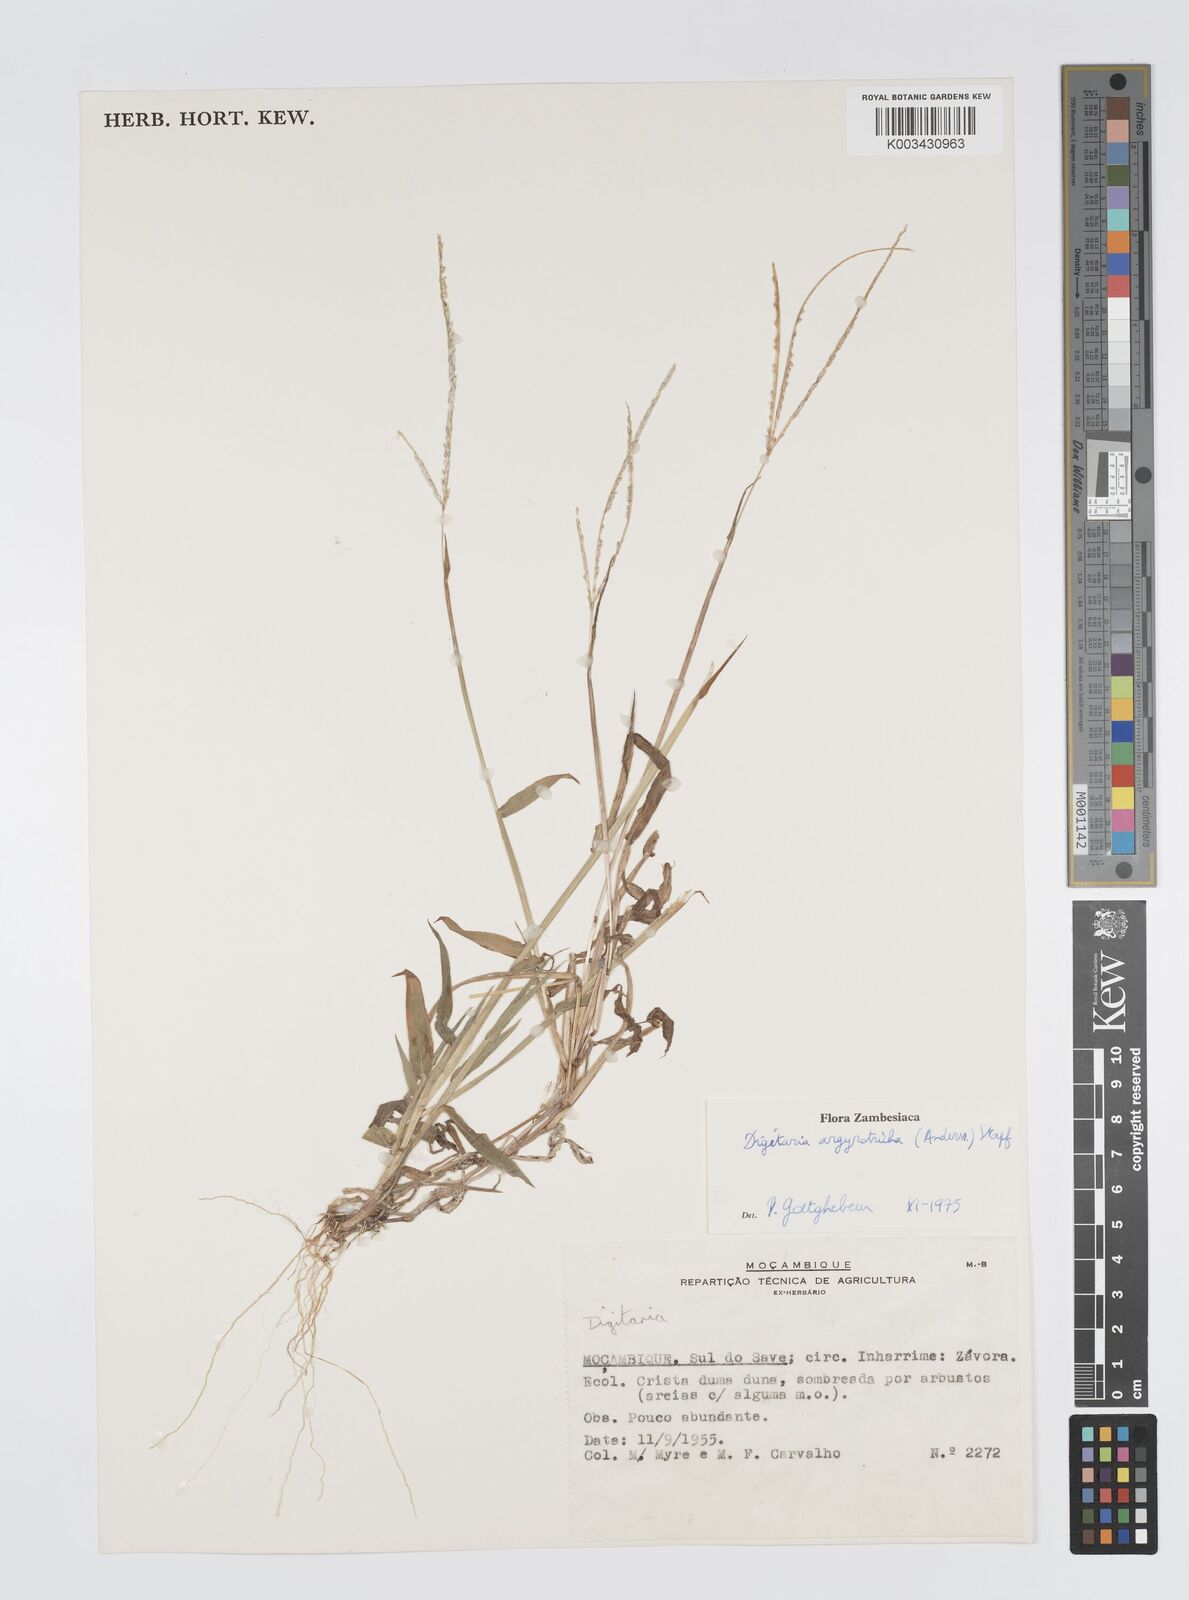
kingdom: Plantae
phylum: Tracheophyta
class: Liliopsida
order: Poales
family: Poaceae
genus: Digitaria
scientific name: Digitaria argyrotricha
